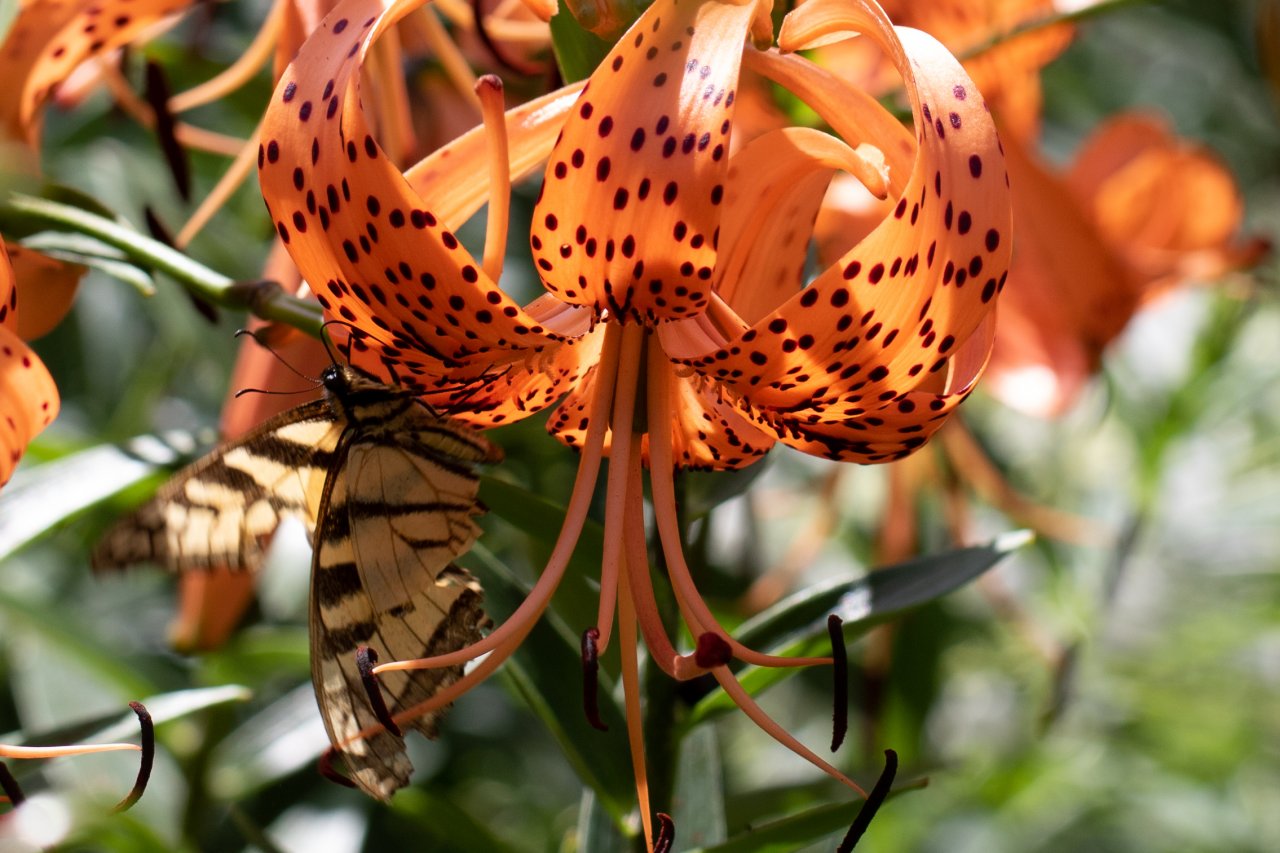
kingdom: Animalia
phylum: Arthropoda
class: Insecta
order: Lepidoptera
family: Papilionidae
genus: Pterourus
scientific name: Pterourus
